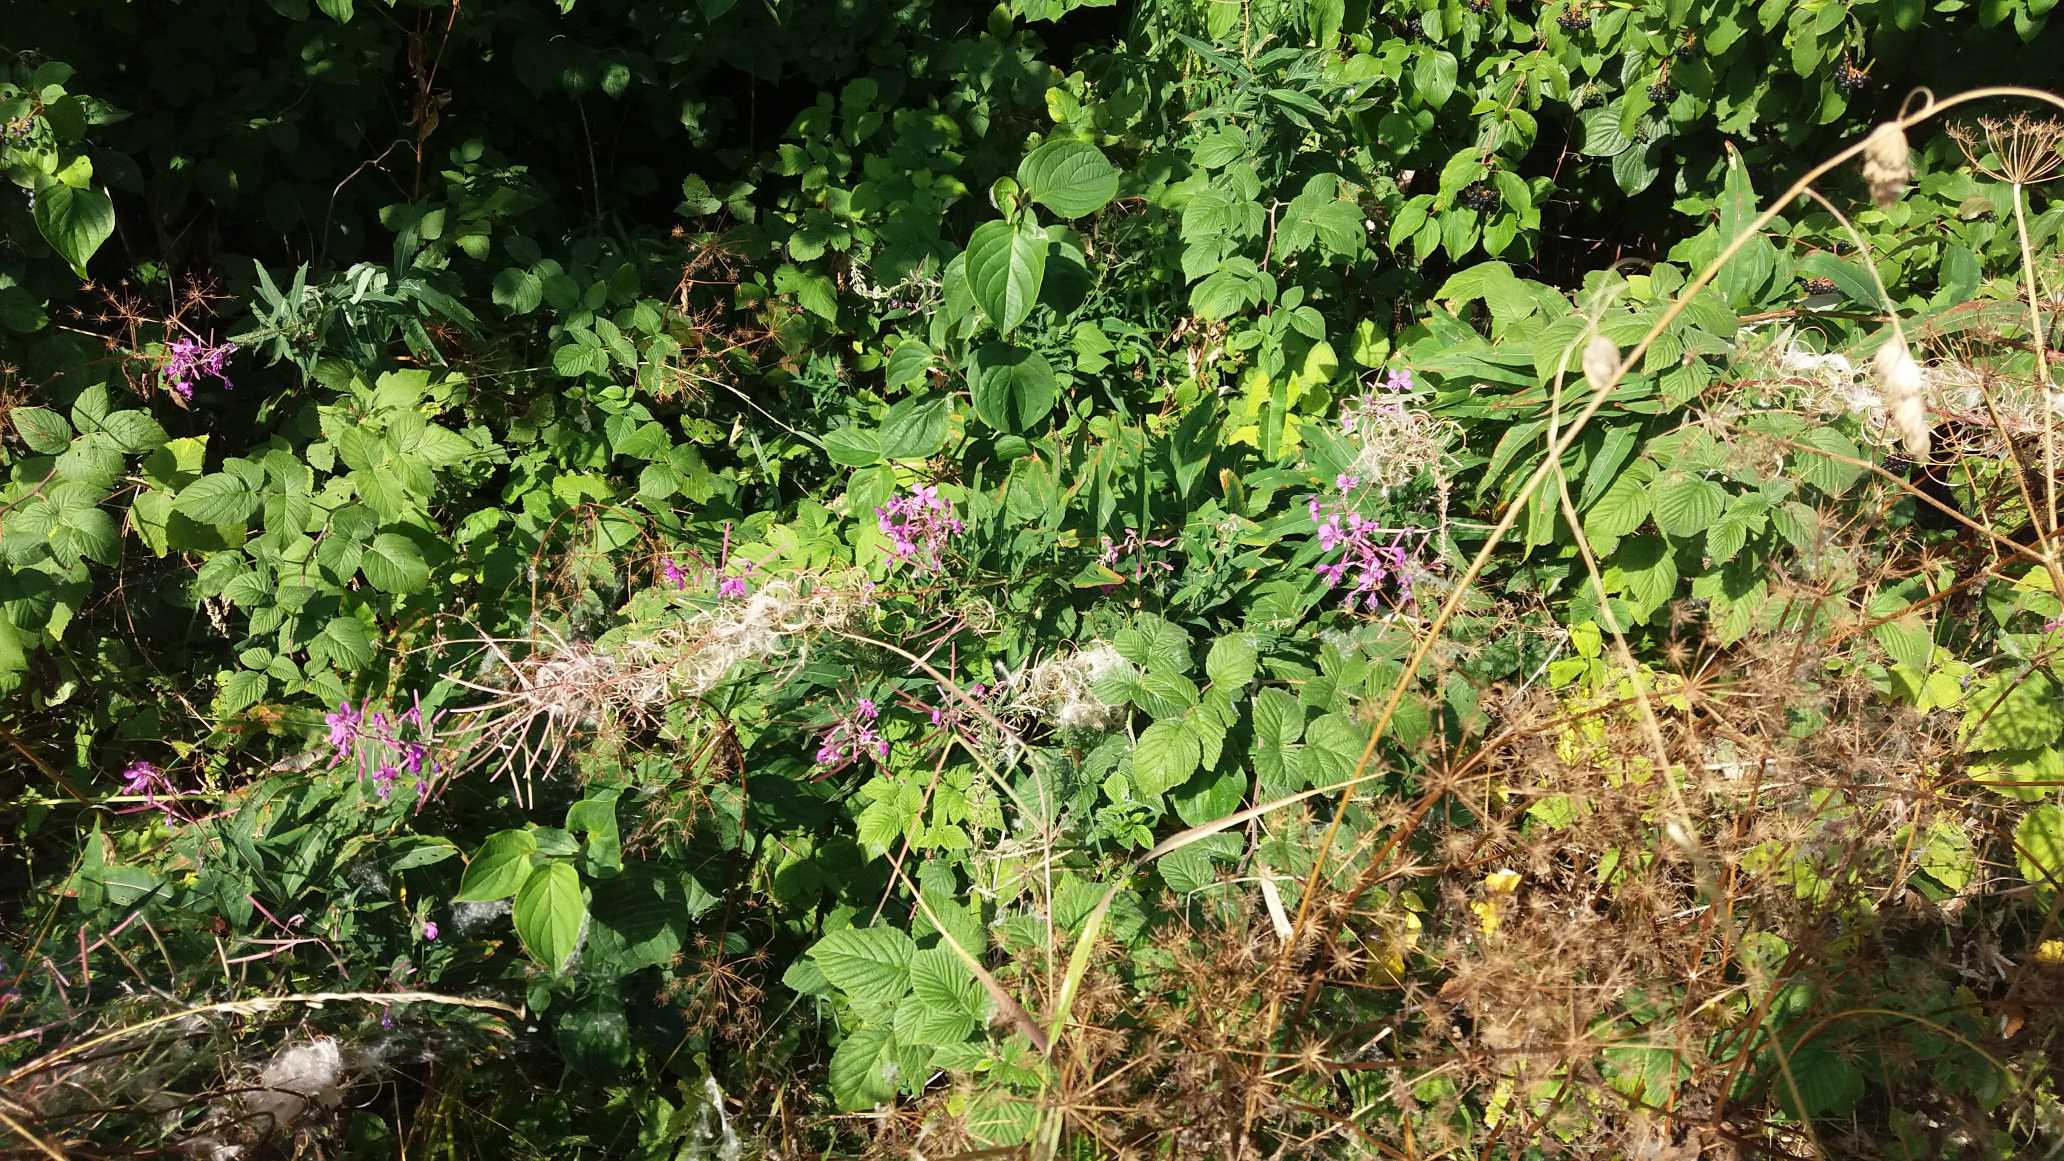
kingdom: Plantae
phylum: Tracheophyta
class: Magnoliopsida
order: Myrtales
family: Onagraceae
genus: Chamaenerion
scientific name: Chamaenerion angustifolium
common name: Gederams
